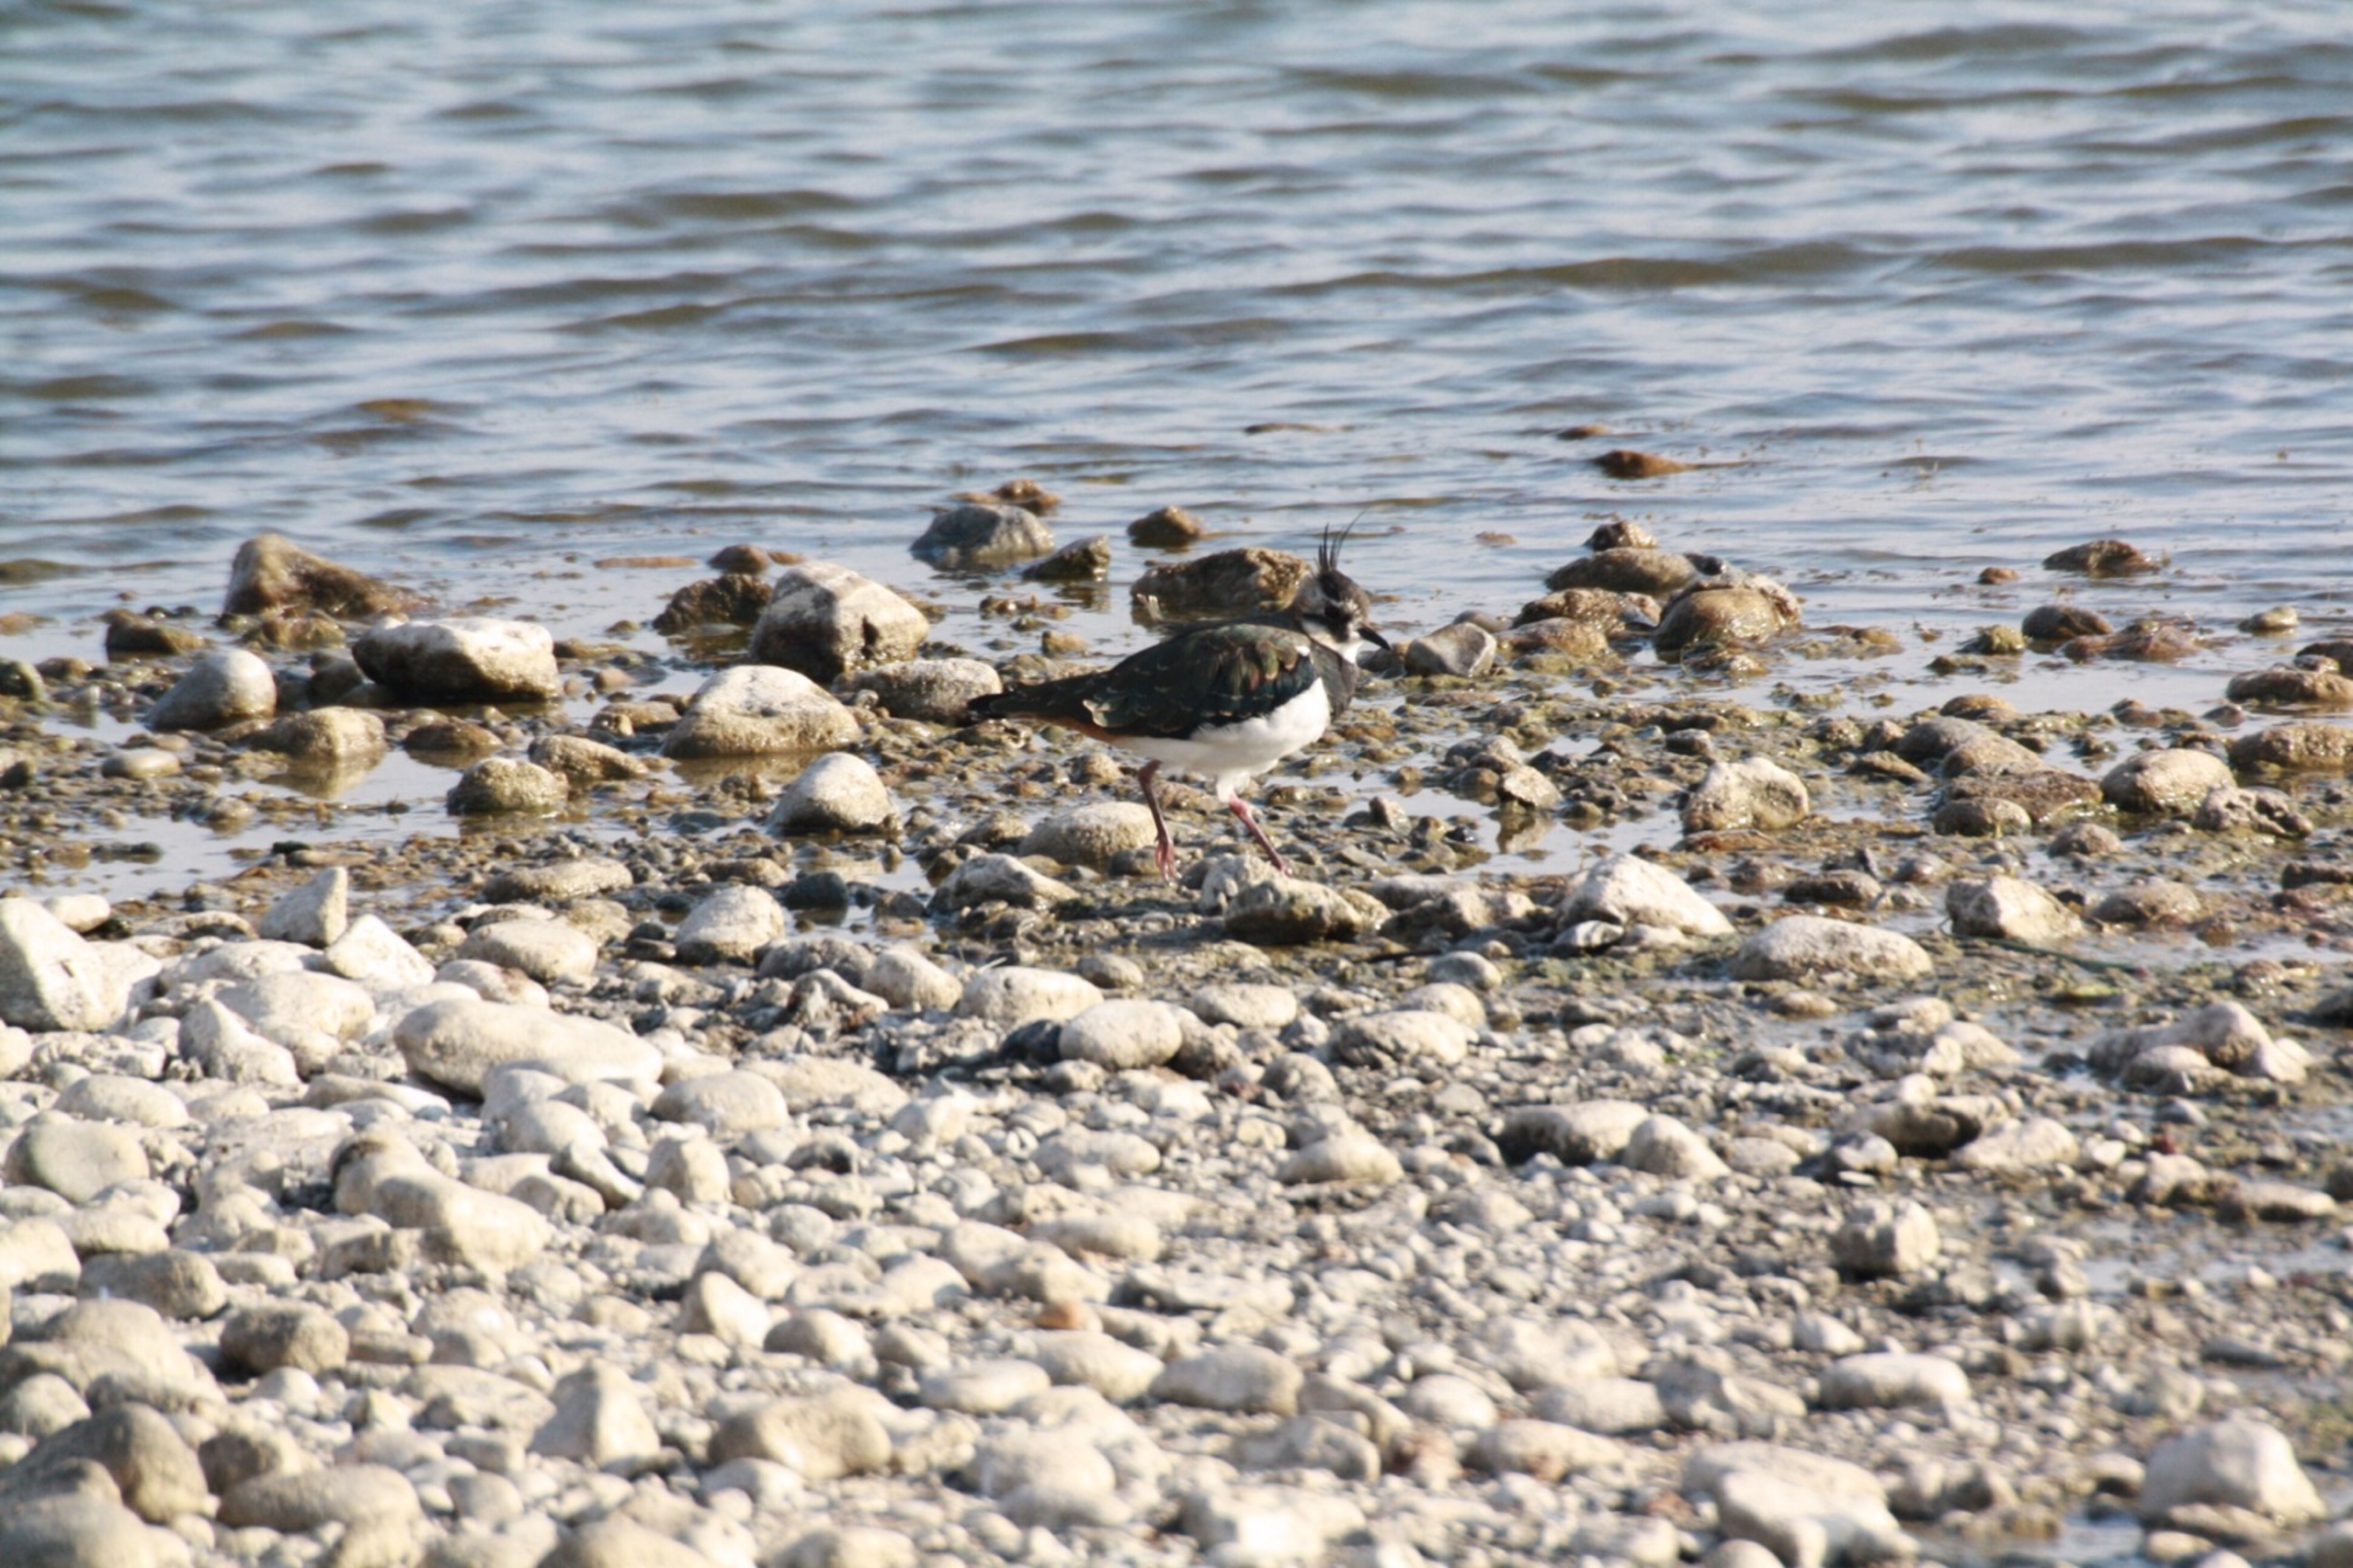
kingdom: Animalia
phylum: Chordata
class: Aves
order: Charadriiformes
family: Charadriidae
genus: Vanellus
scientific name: Vanellus vanellus
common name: Vibe
